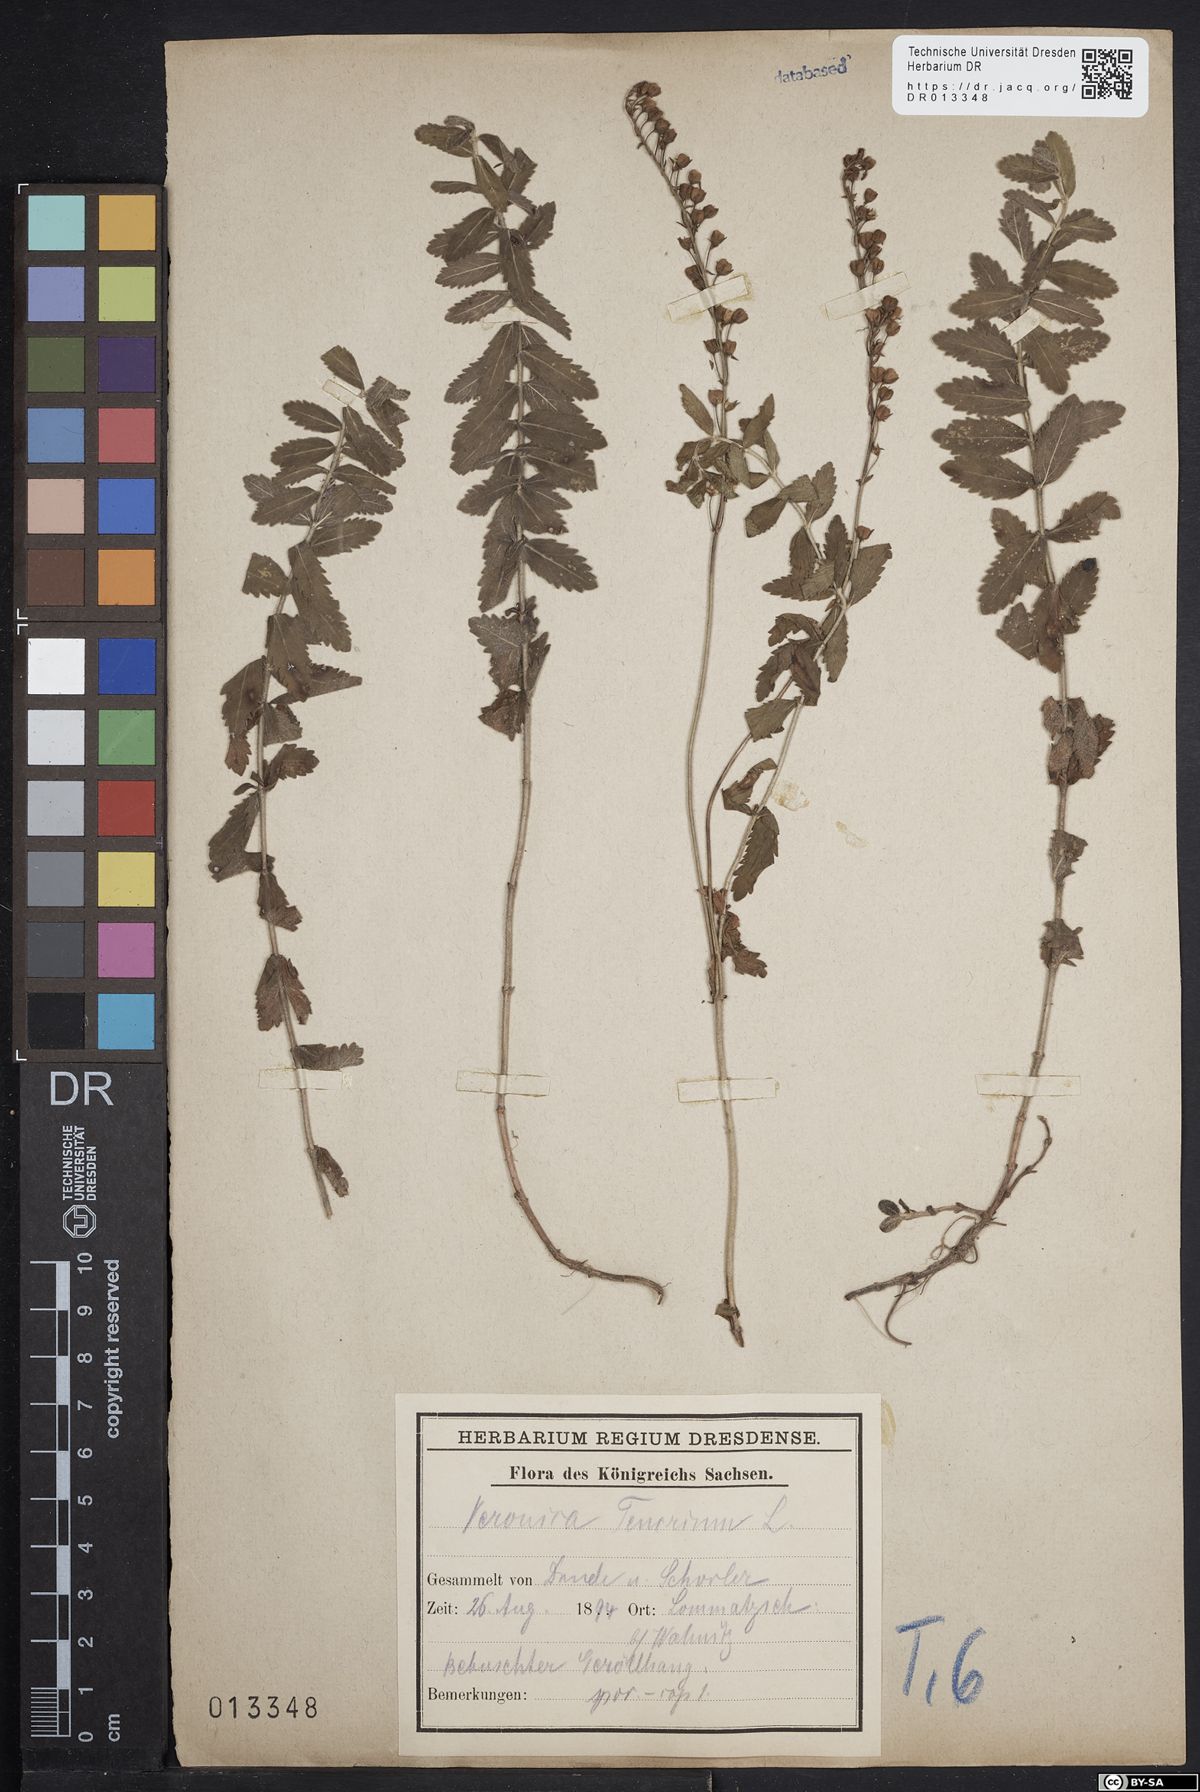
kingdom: Plantae
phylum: Tracheophyta
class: Magnoliopsida
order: Lamiales
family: Plantaginaceae
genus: Veronica
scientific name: Veronica teucrium
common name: Large speedwell
